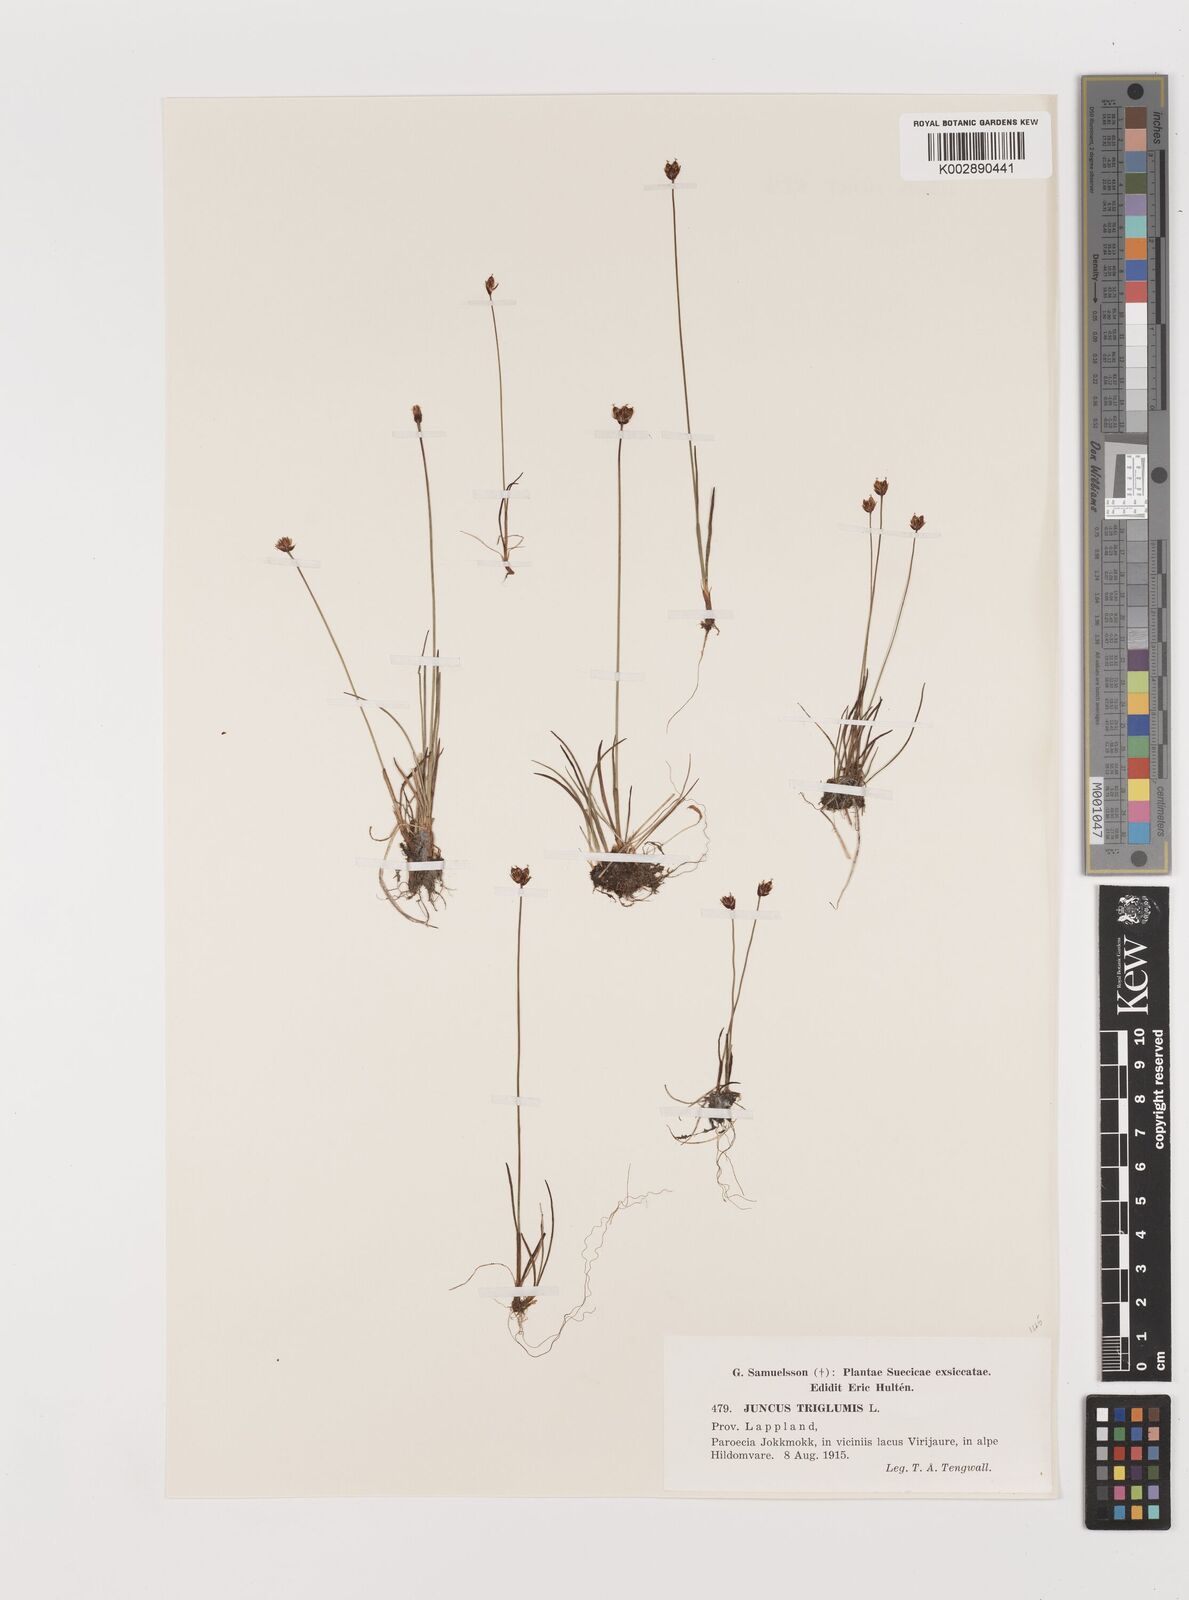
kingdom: Plantae
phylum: Tracheophyta
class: Liliopsida
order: Poales
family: Juncaceae
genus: Juncus
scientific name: Juncus triglumis
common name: Three-flowered rush
